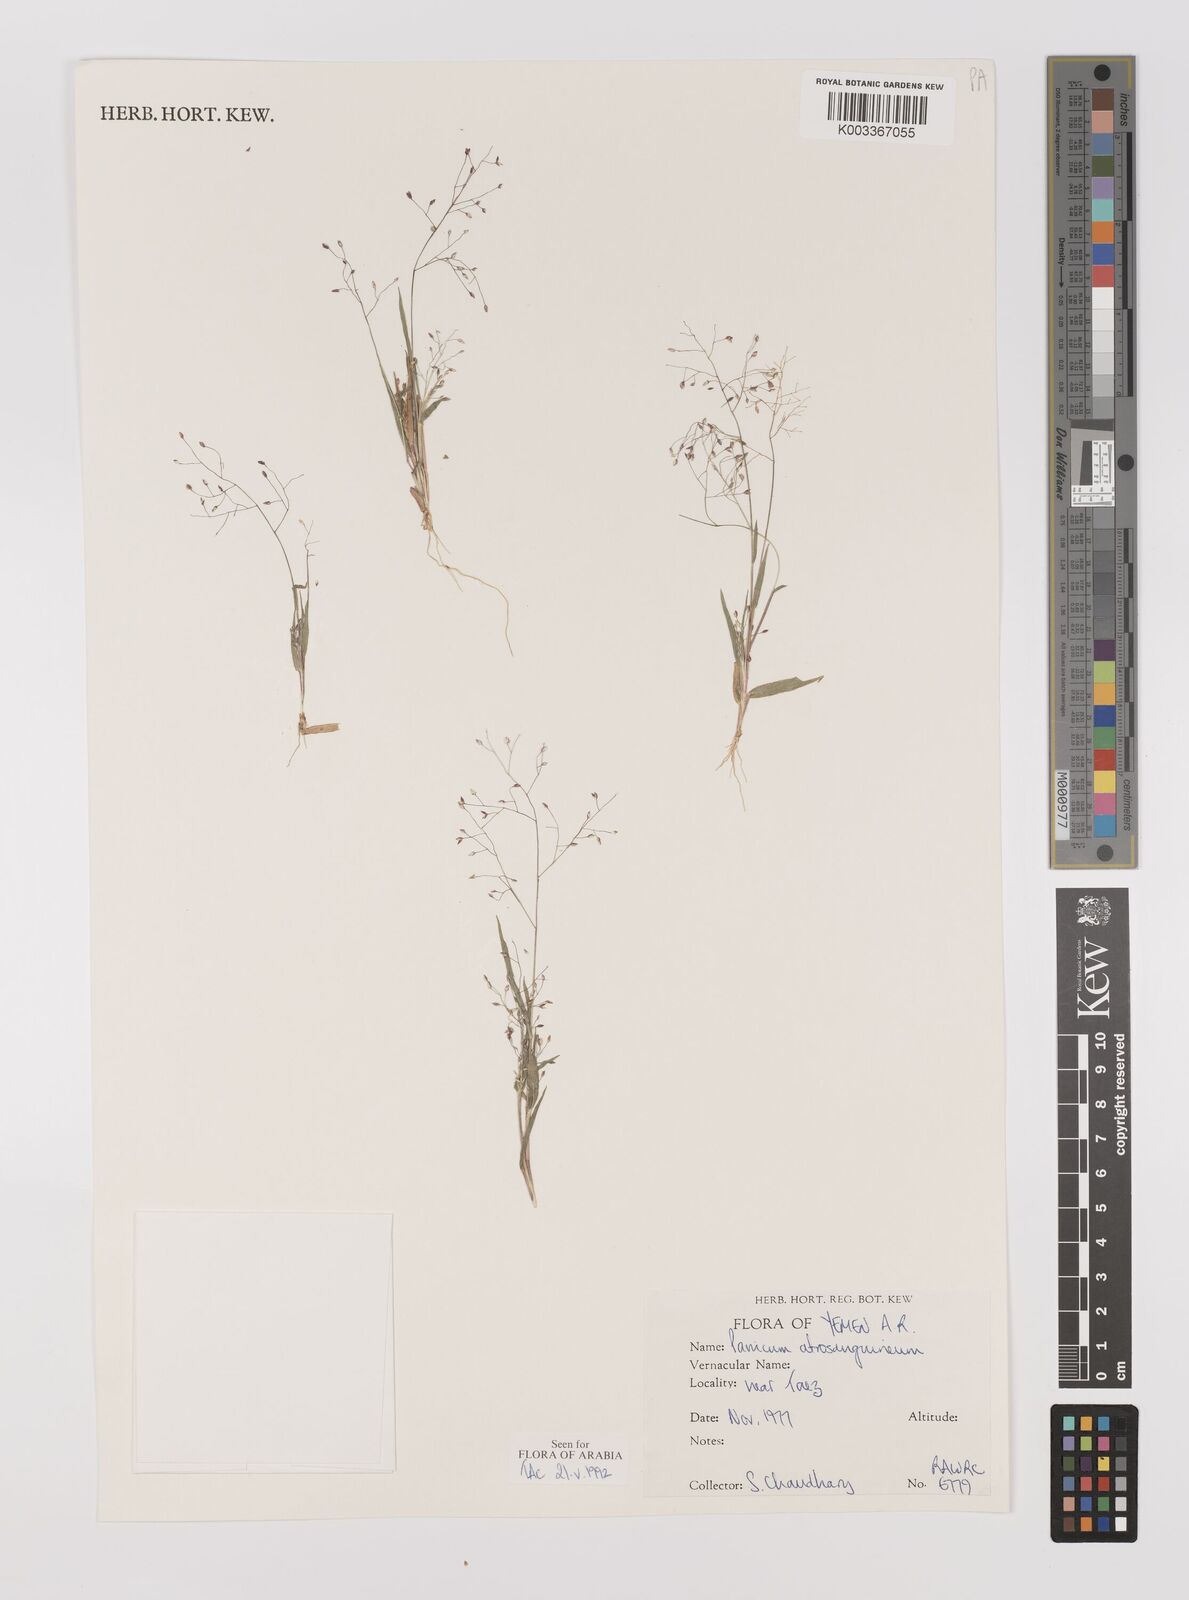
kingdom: Plantae
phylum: Tracheophyta
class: Liliopsida
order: Poales
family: Poaceae
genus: Panicum
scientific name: Panicum atrosanguineum
